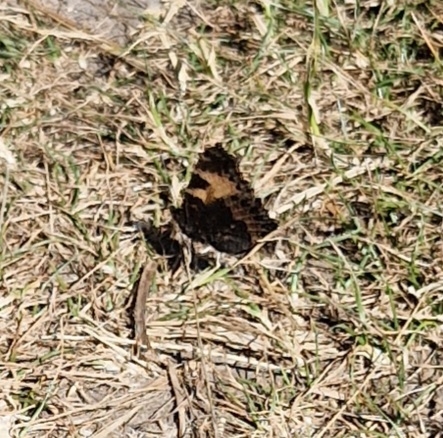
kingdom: Animalia
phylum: Arthropoda
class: Insecta
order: Lepidoptera
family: Nymphalidae
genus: Aglais
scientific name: Aglais urticae
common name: Nældens takvinge
